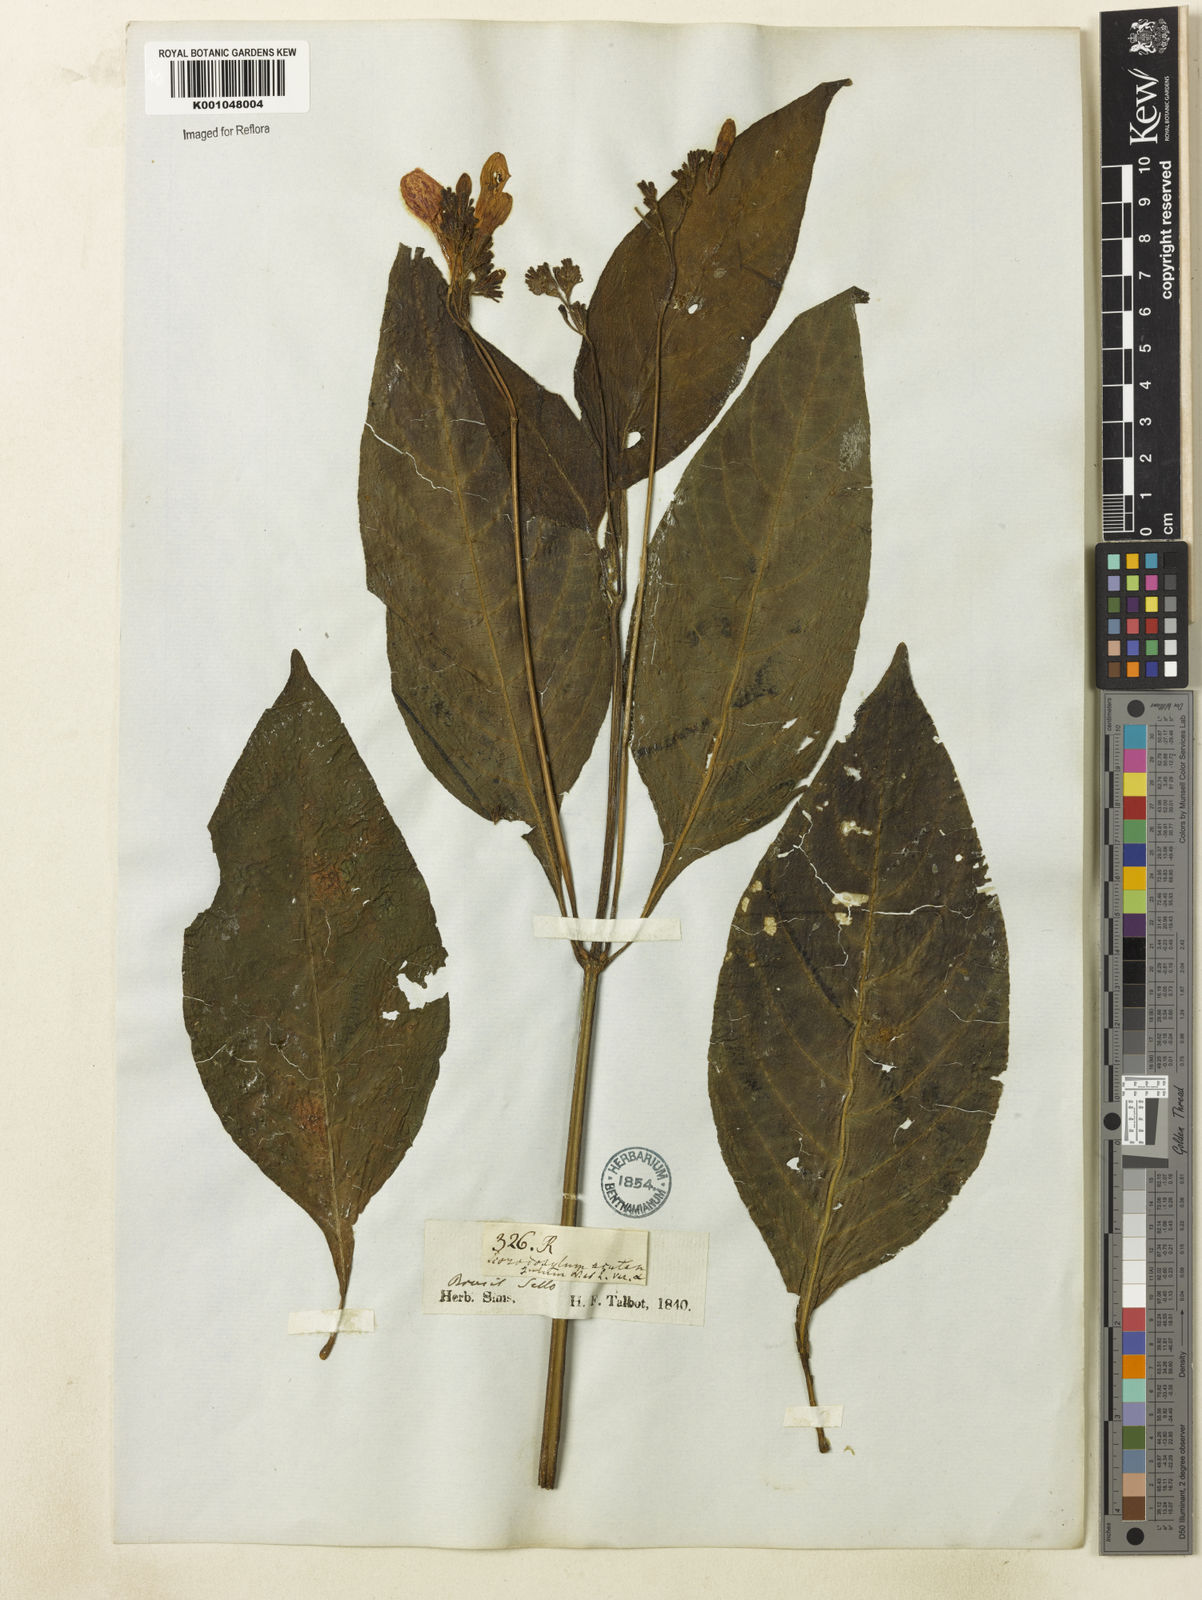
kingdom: Plantae
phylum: Tracheophyta
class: Magnoliopsida
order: Lamiales
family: Acanthaceae
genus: Ruellia
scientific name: Ruellia
